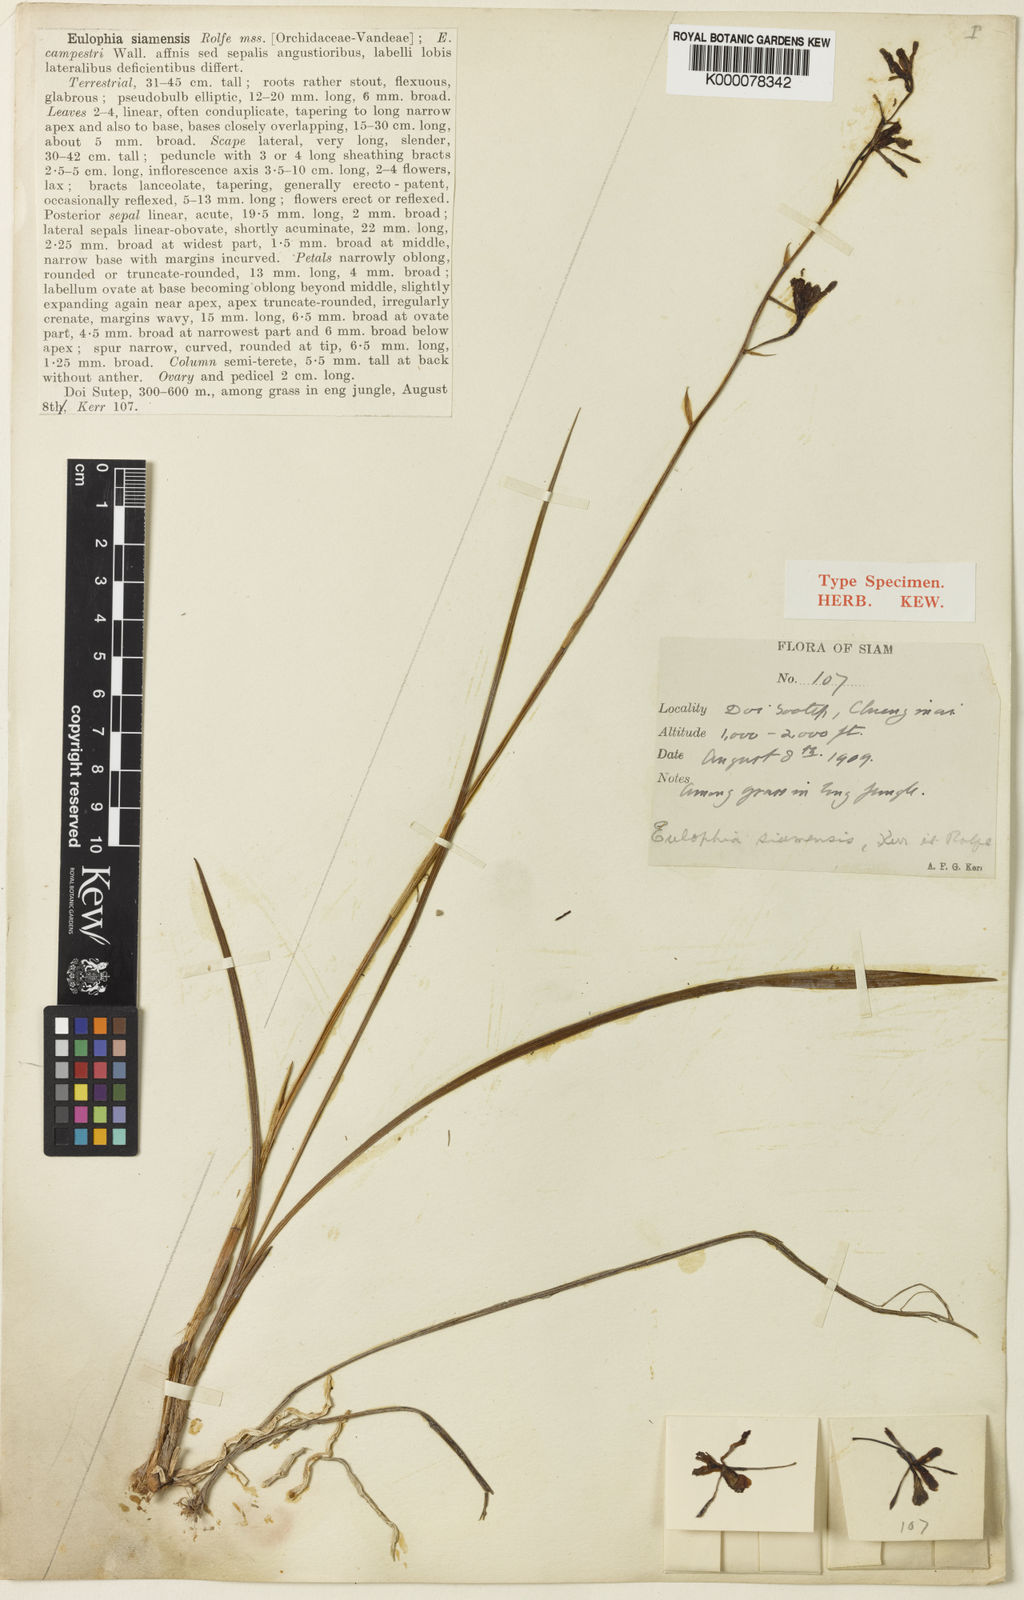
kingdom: Plantae
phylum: Tracheophyta
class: Liliopsida
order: Asparagales
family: Orchidaceae
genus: Eulophia
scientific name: Eulophia siamensis
